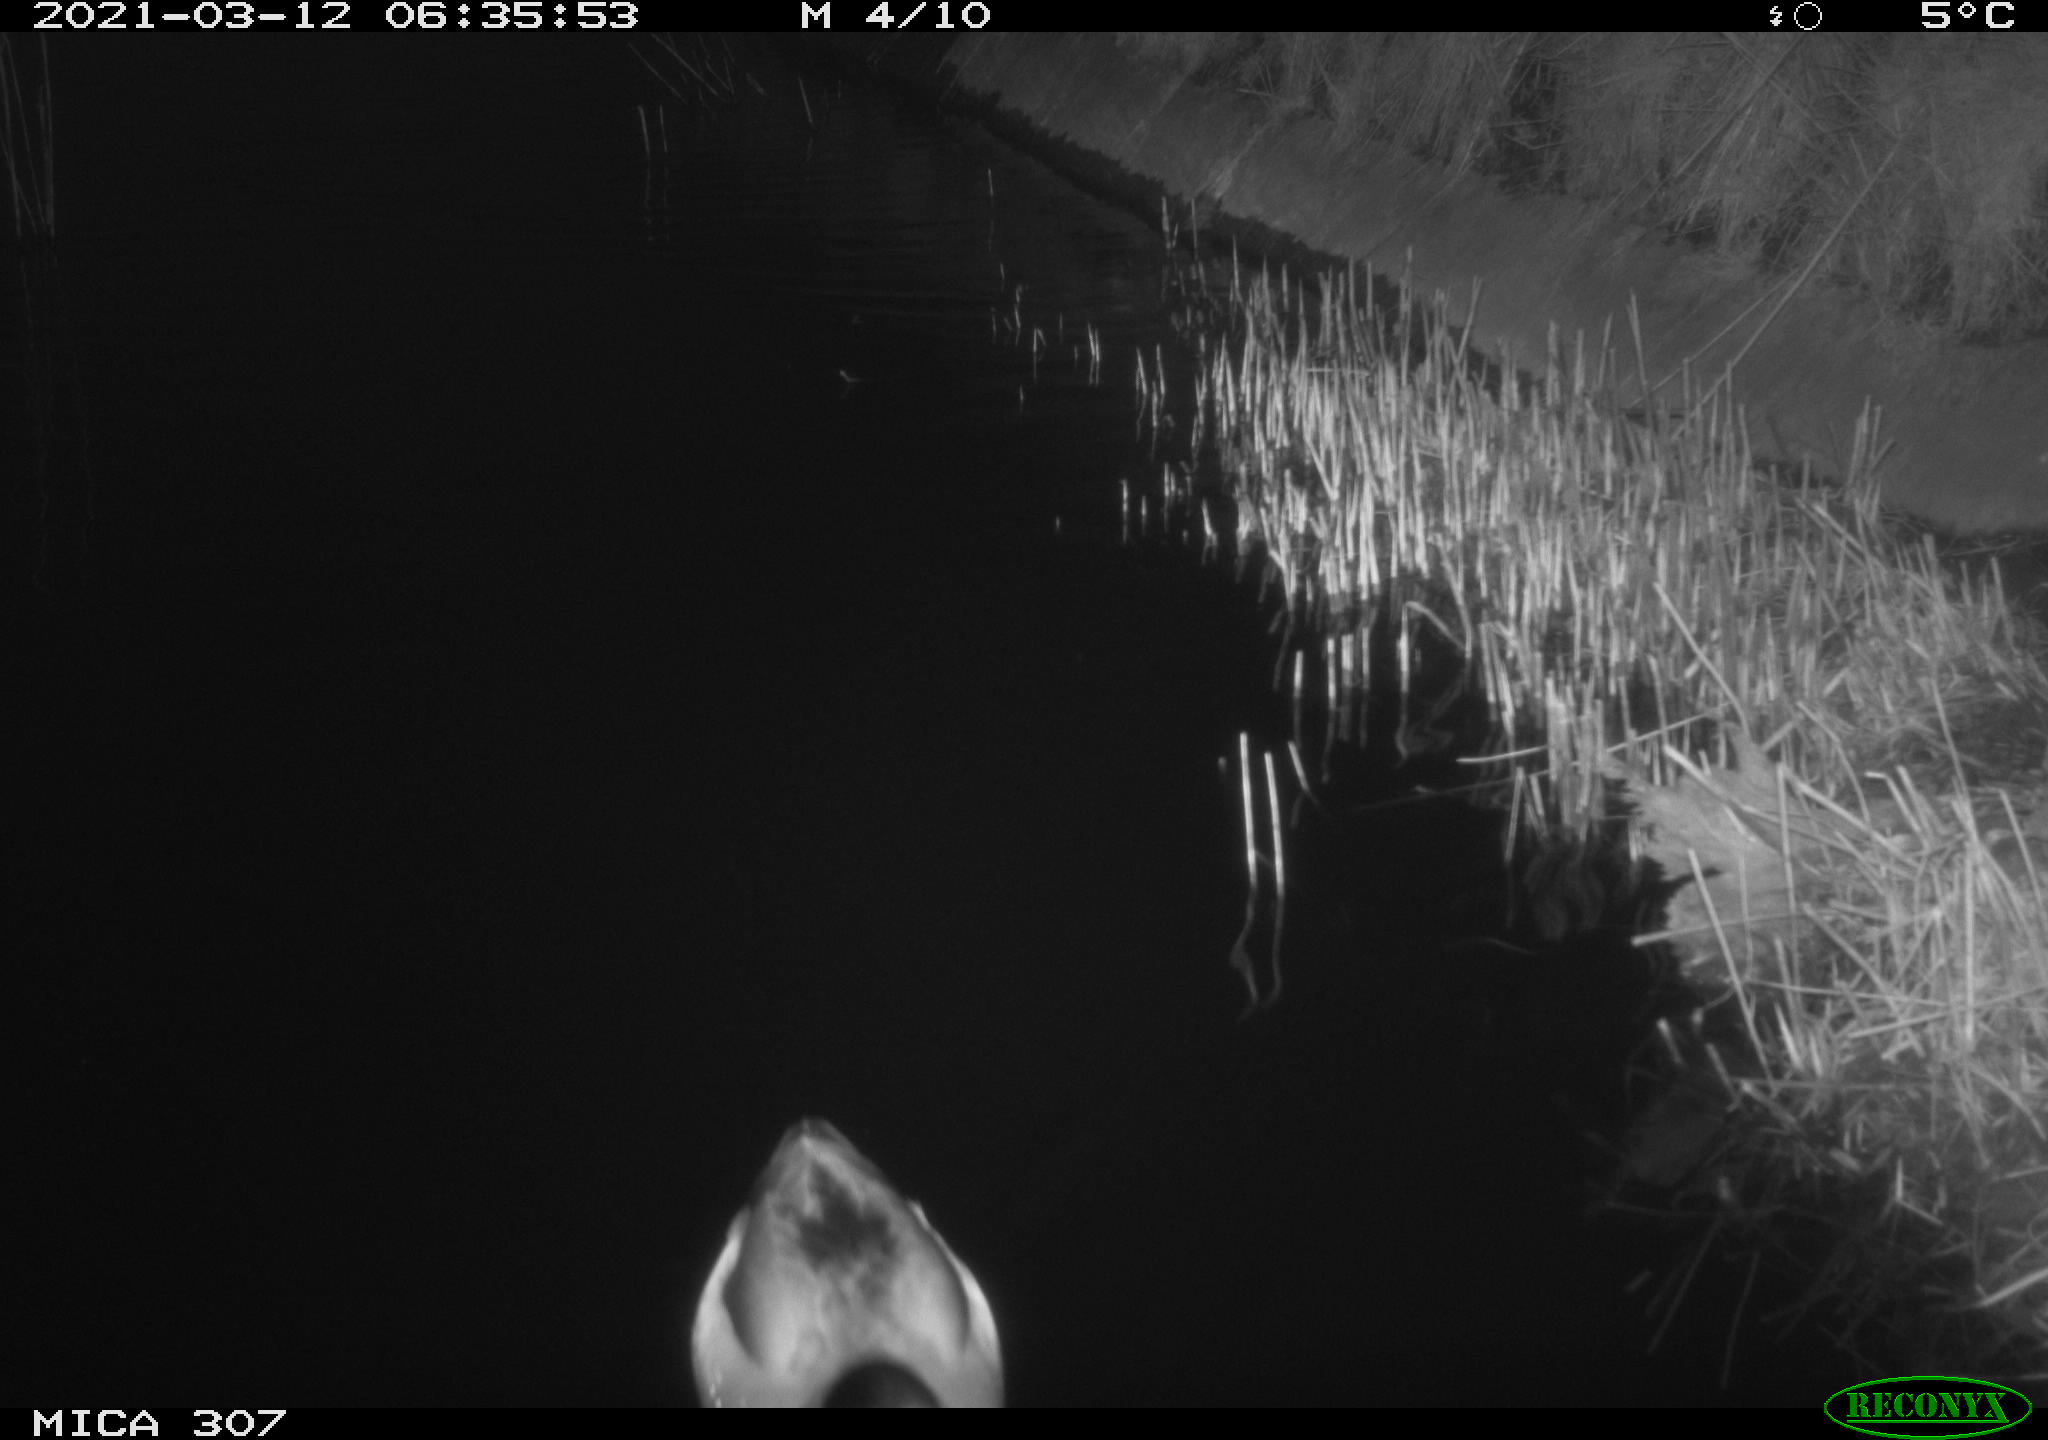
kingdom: Animalia
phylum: Chordata
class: Aves
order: Anseriformes
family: Anatidae
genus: Anas
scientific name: Anas platyrhynchos
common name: Mallard
